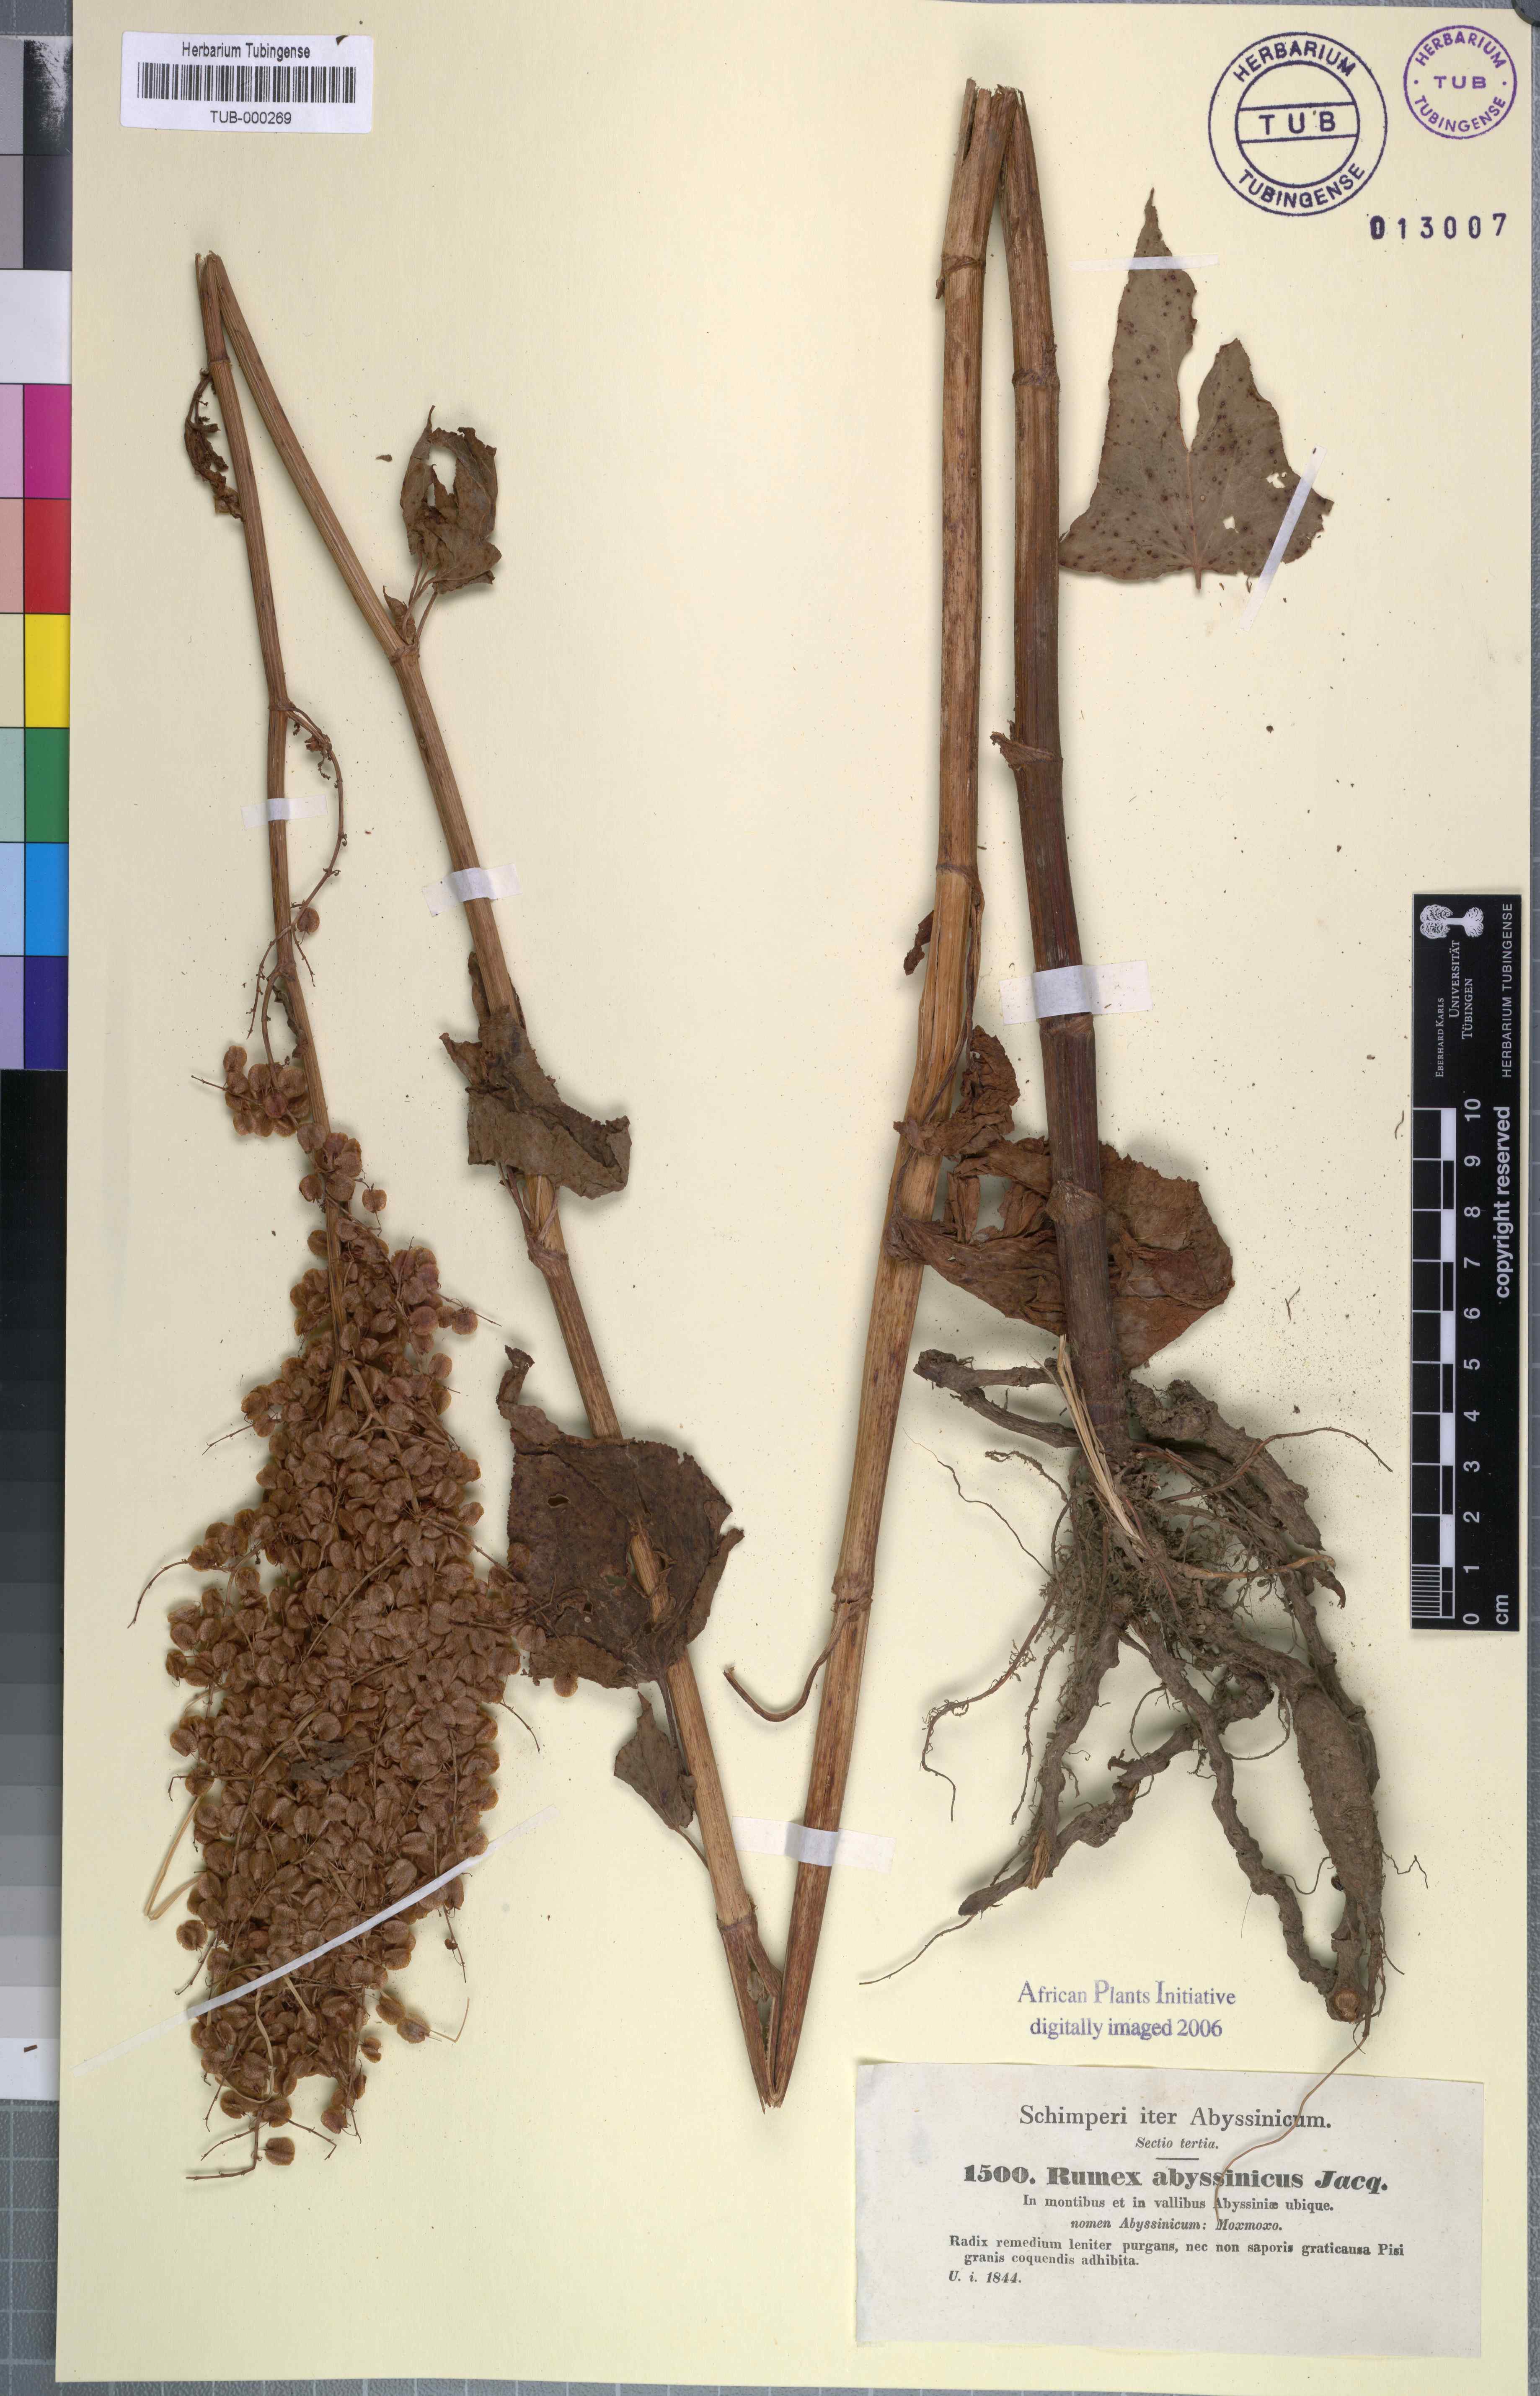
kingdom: Plantae
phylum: Tracheophyta
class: Magnoliopsida
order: Caryophyllales
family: Polygonaceae
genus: Rumex
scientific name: Rumex abyssinicus
